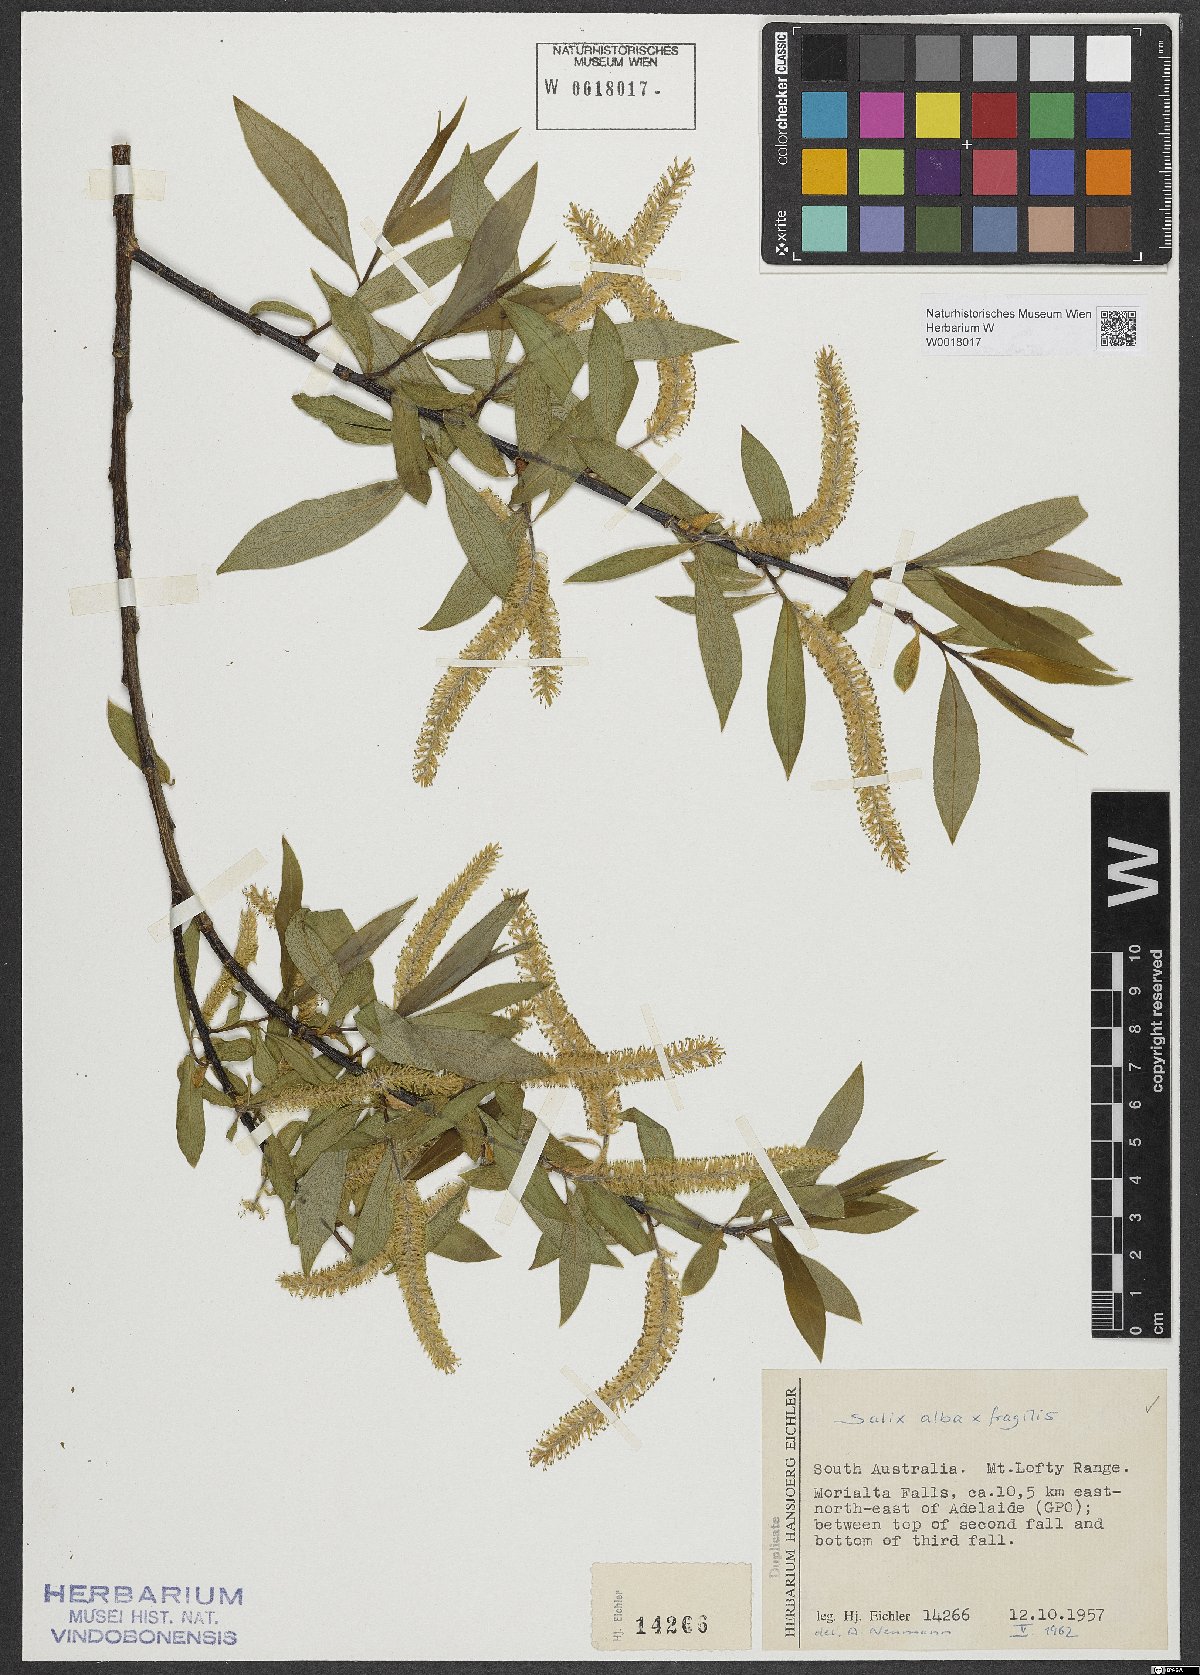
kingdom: Plantae
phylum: Tracheophyta
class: Magnoliopsida
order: Malpighiales
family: Salicaceae
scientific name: Salicaceae
